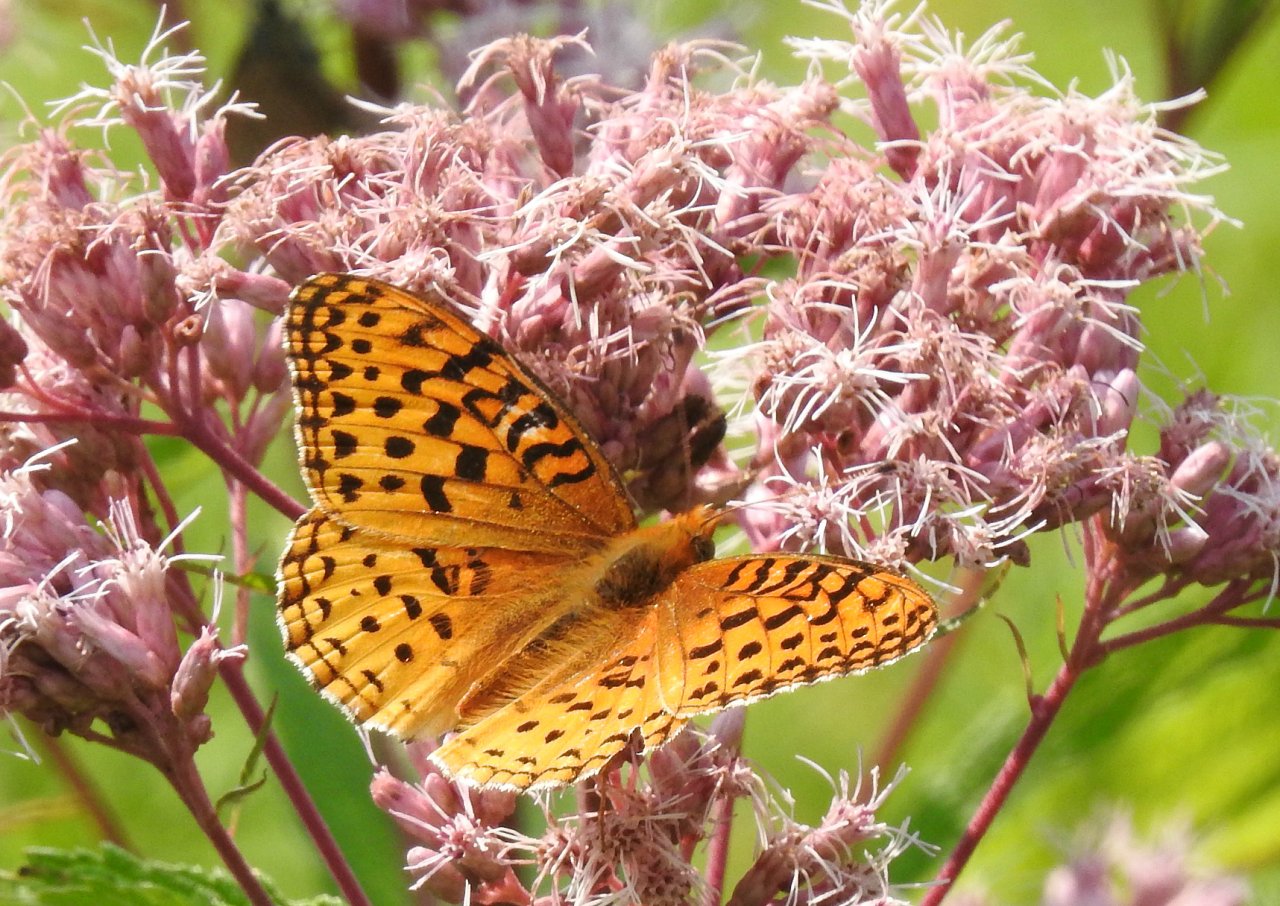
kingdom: Animalia
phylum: Arthropoda
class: Insecta
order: Lepidoptera
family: Nymphalidae
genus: Speyeria
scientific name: Speyeria aphrodite
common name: Aphrodite Fritillary
